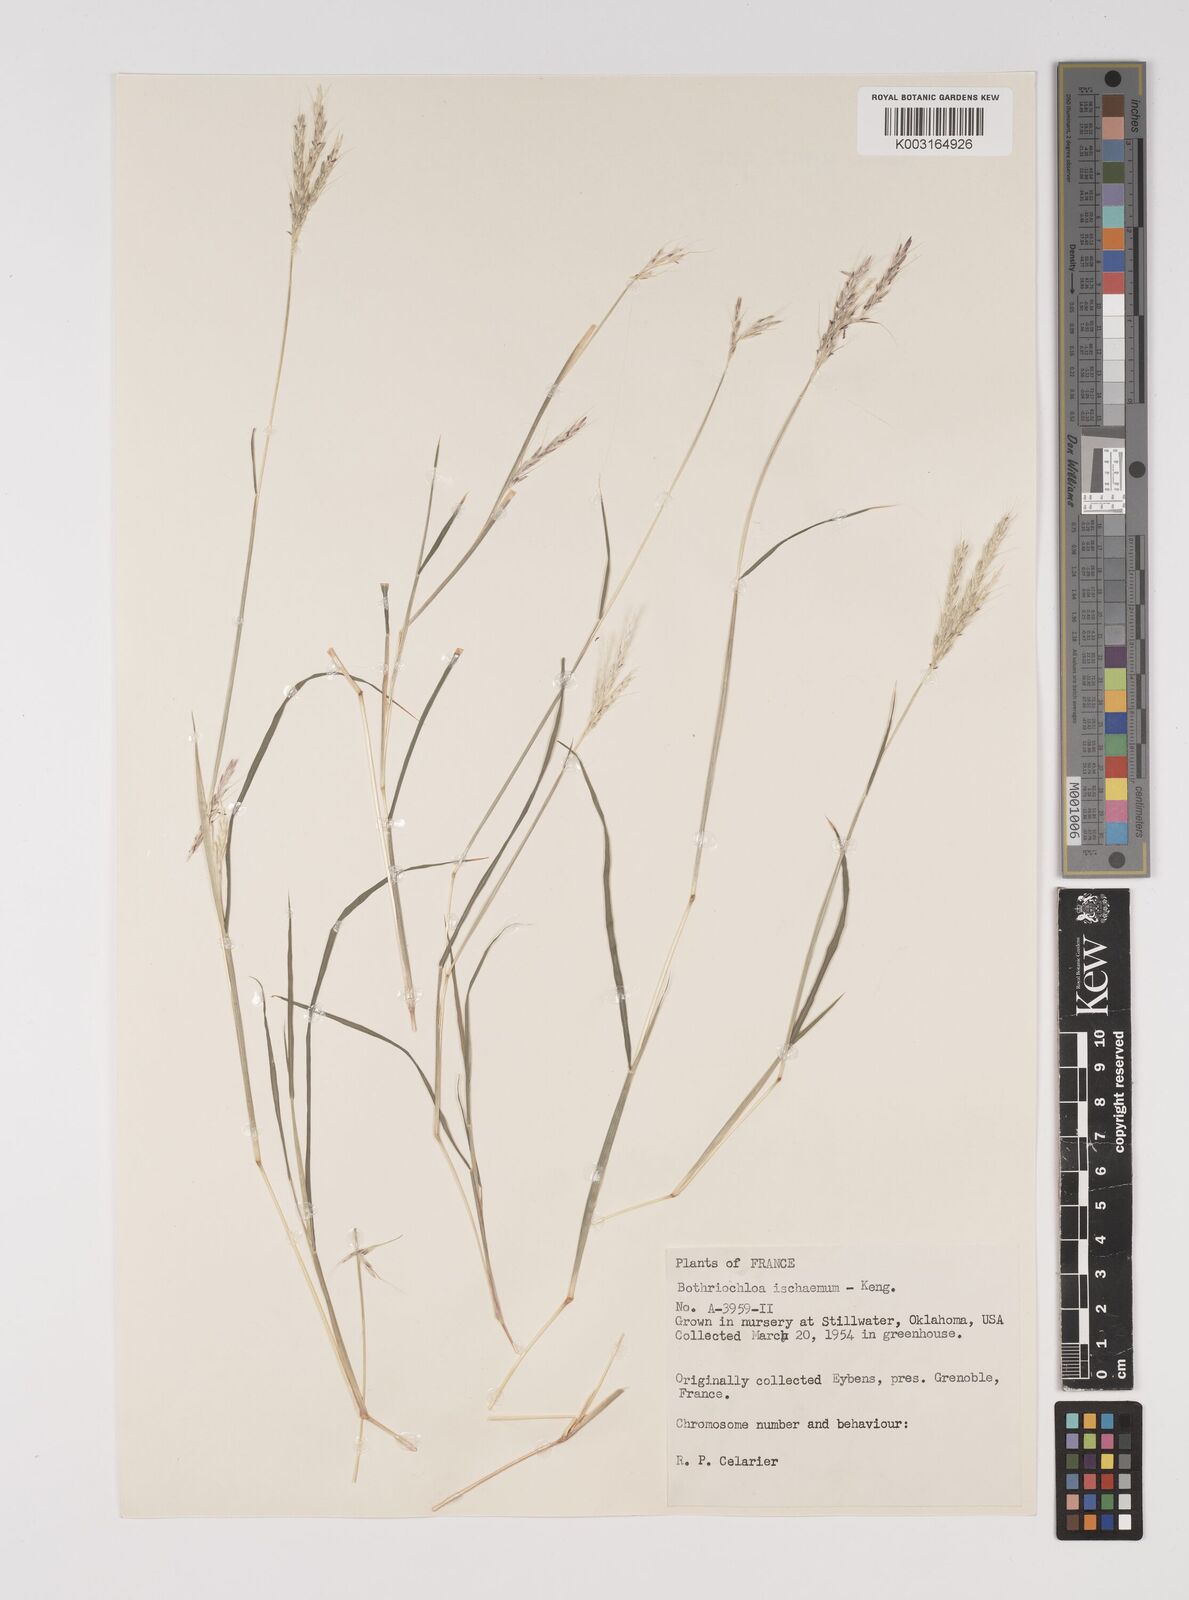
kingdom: Plantae
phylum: Tracheophyta
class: Liliopsida
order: Poales
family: Poaceae
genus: Bothriochloa
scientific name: Bothriochloa ischaemum
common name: Yellow bluestem
